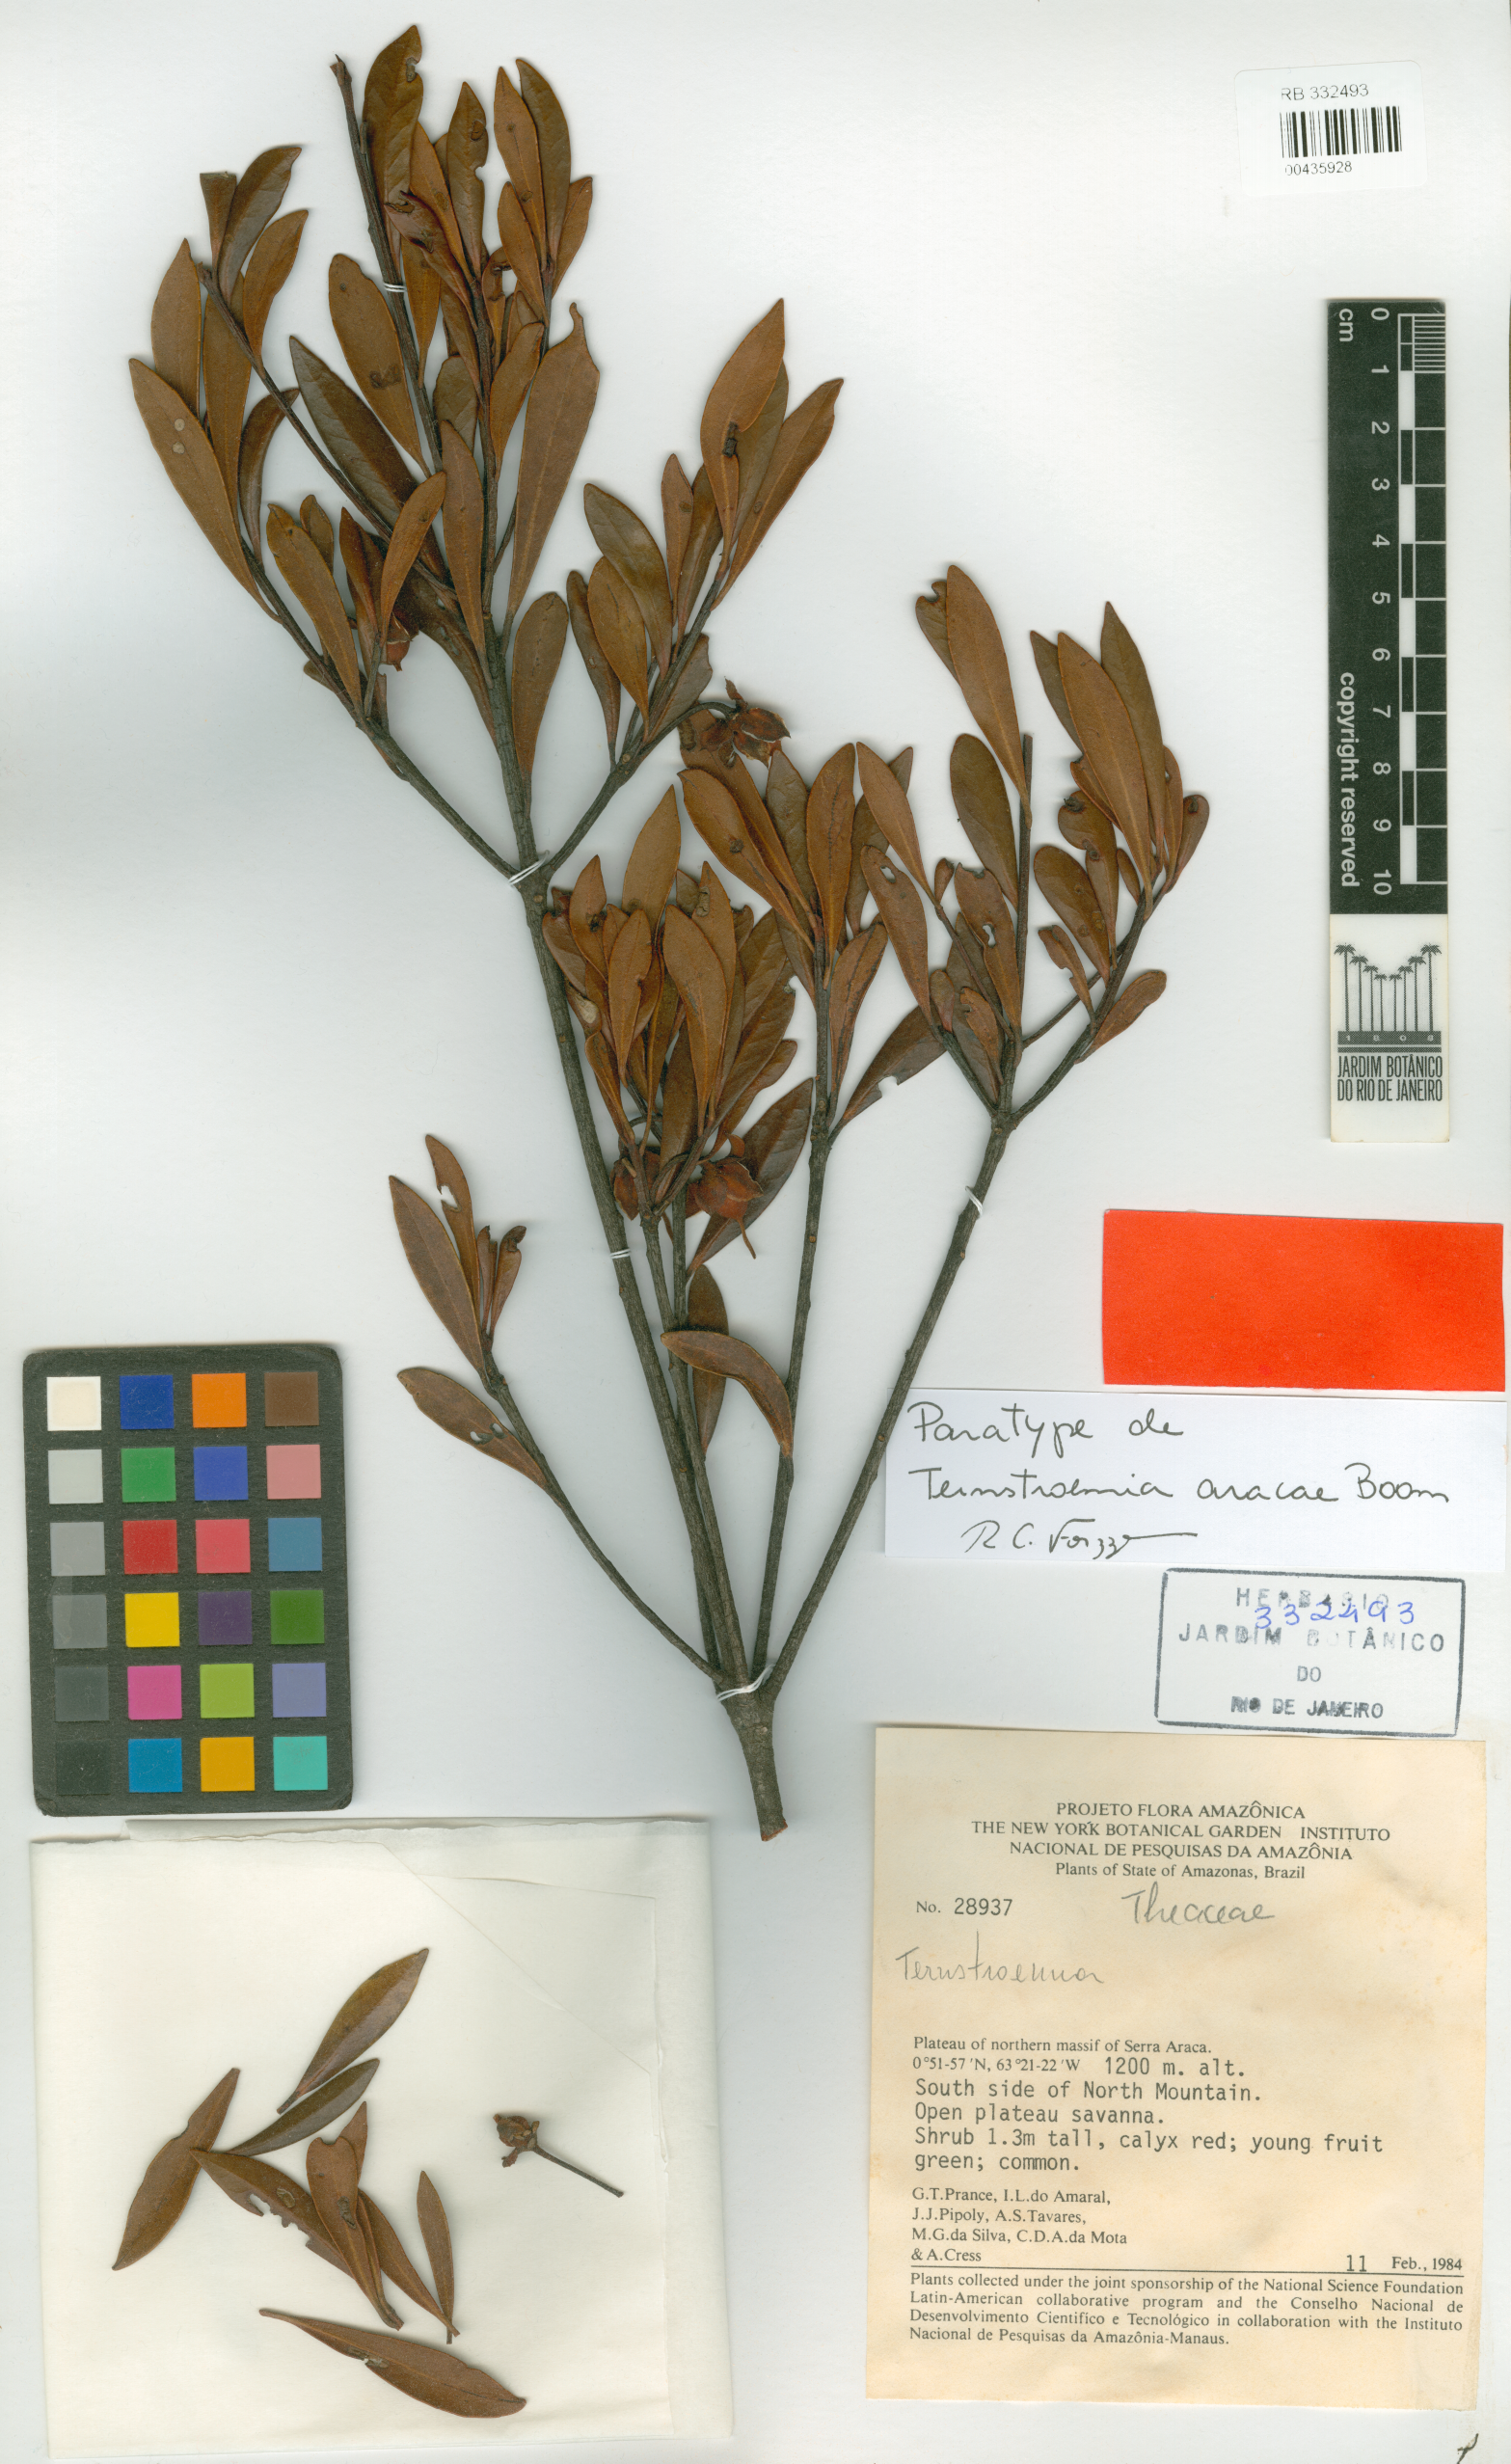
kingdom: Plantae
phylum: Tracheophyta
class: Magnoliopsida
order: Ericales
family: Pentaphylacaceae
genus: Ternstroemia
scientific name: Ternstroemia aracae
